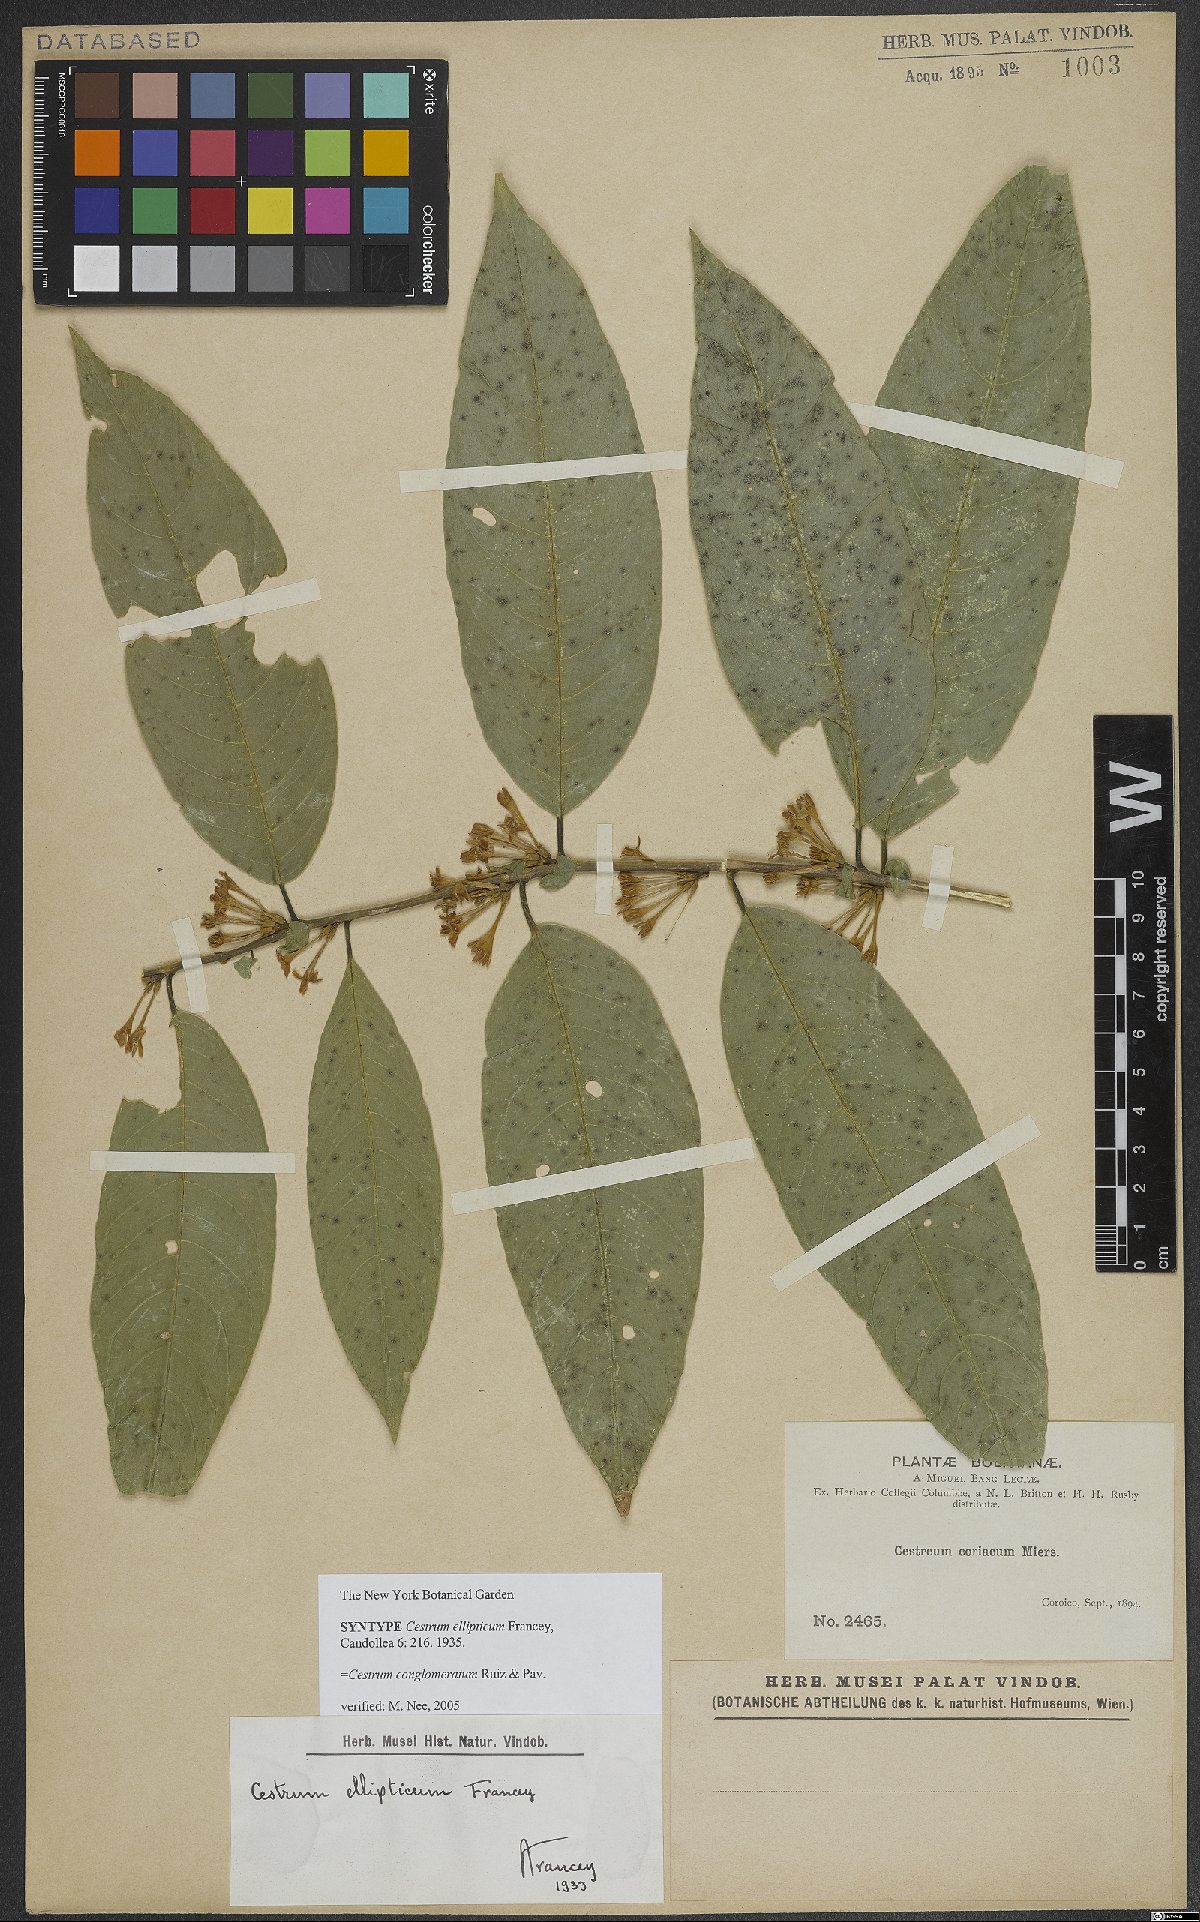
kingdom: Plantae
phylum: Tracheophyta
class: Magnoliopsida
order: Solanales
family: Solanaceae
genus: Cestrum
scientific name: Cestrum conglomeratum
